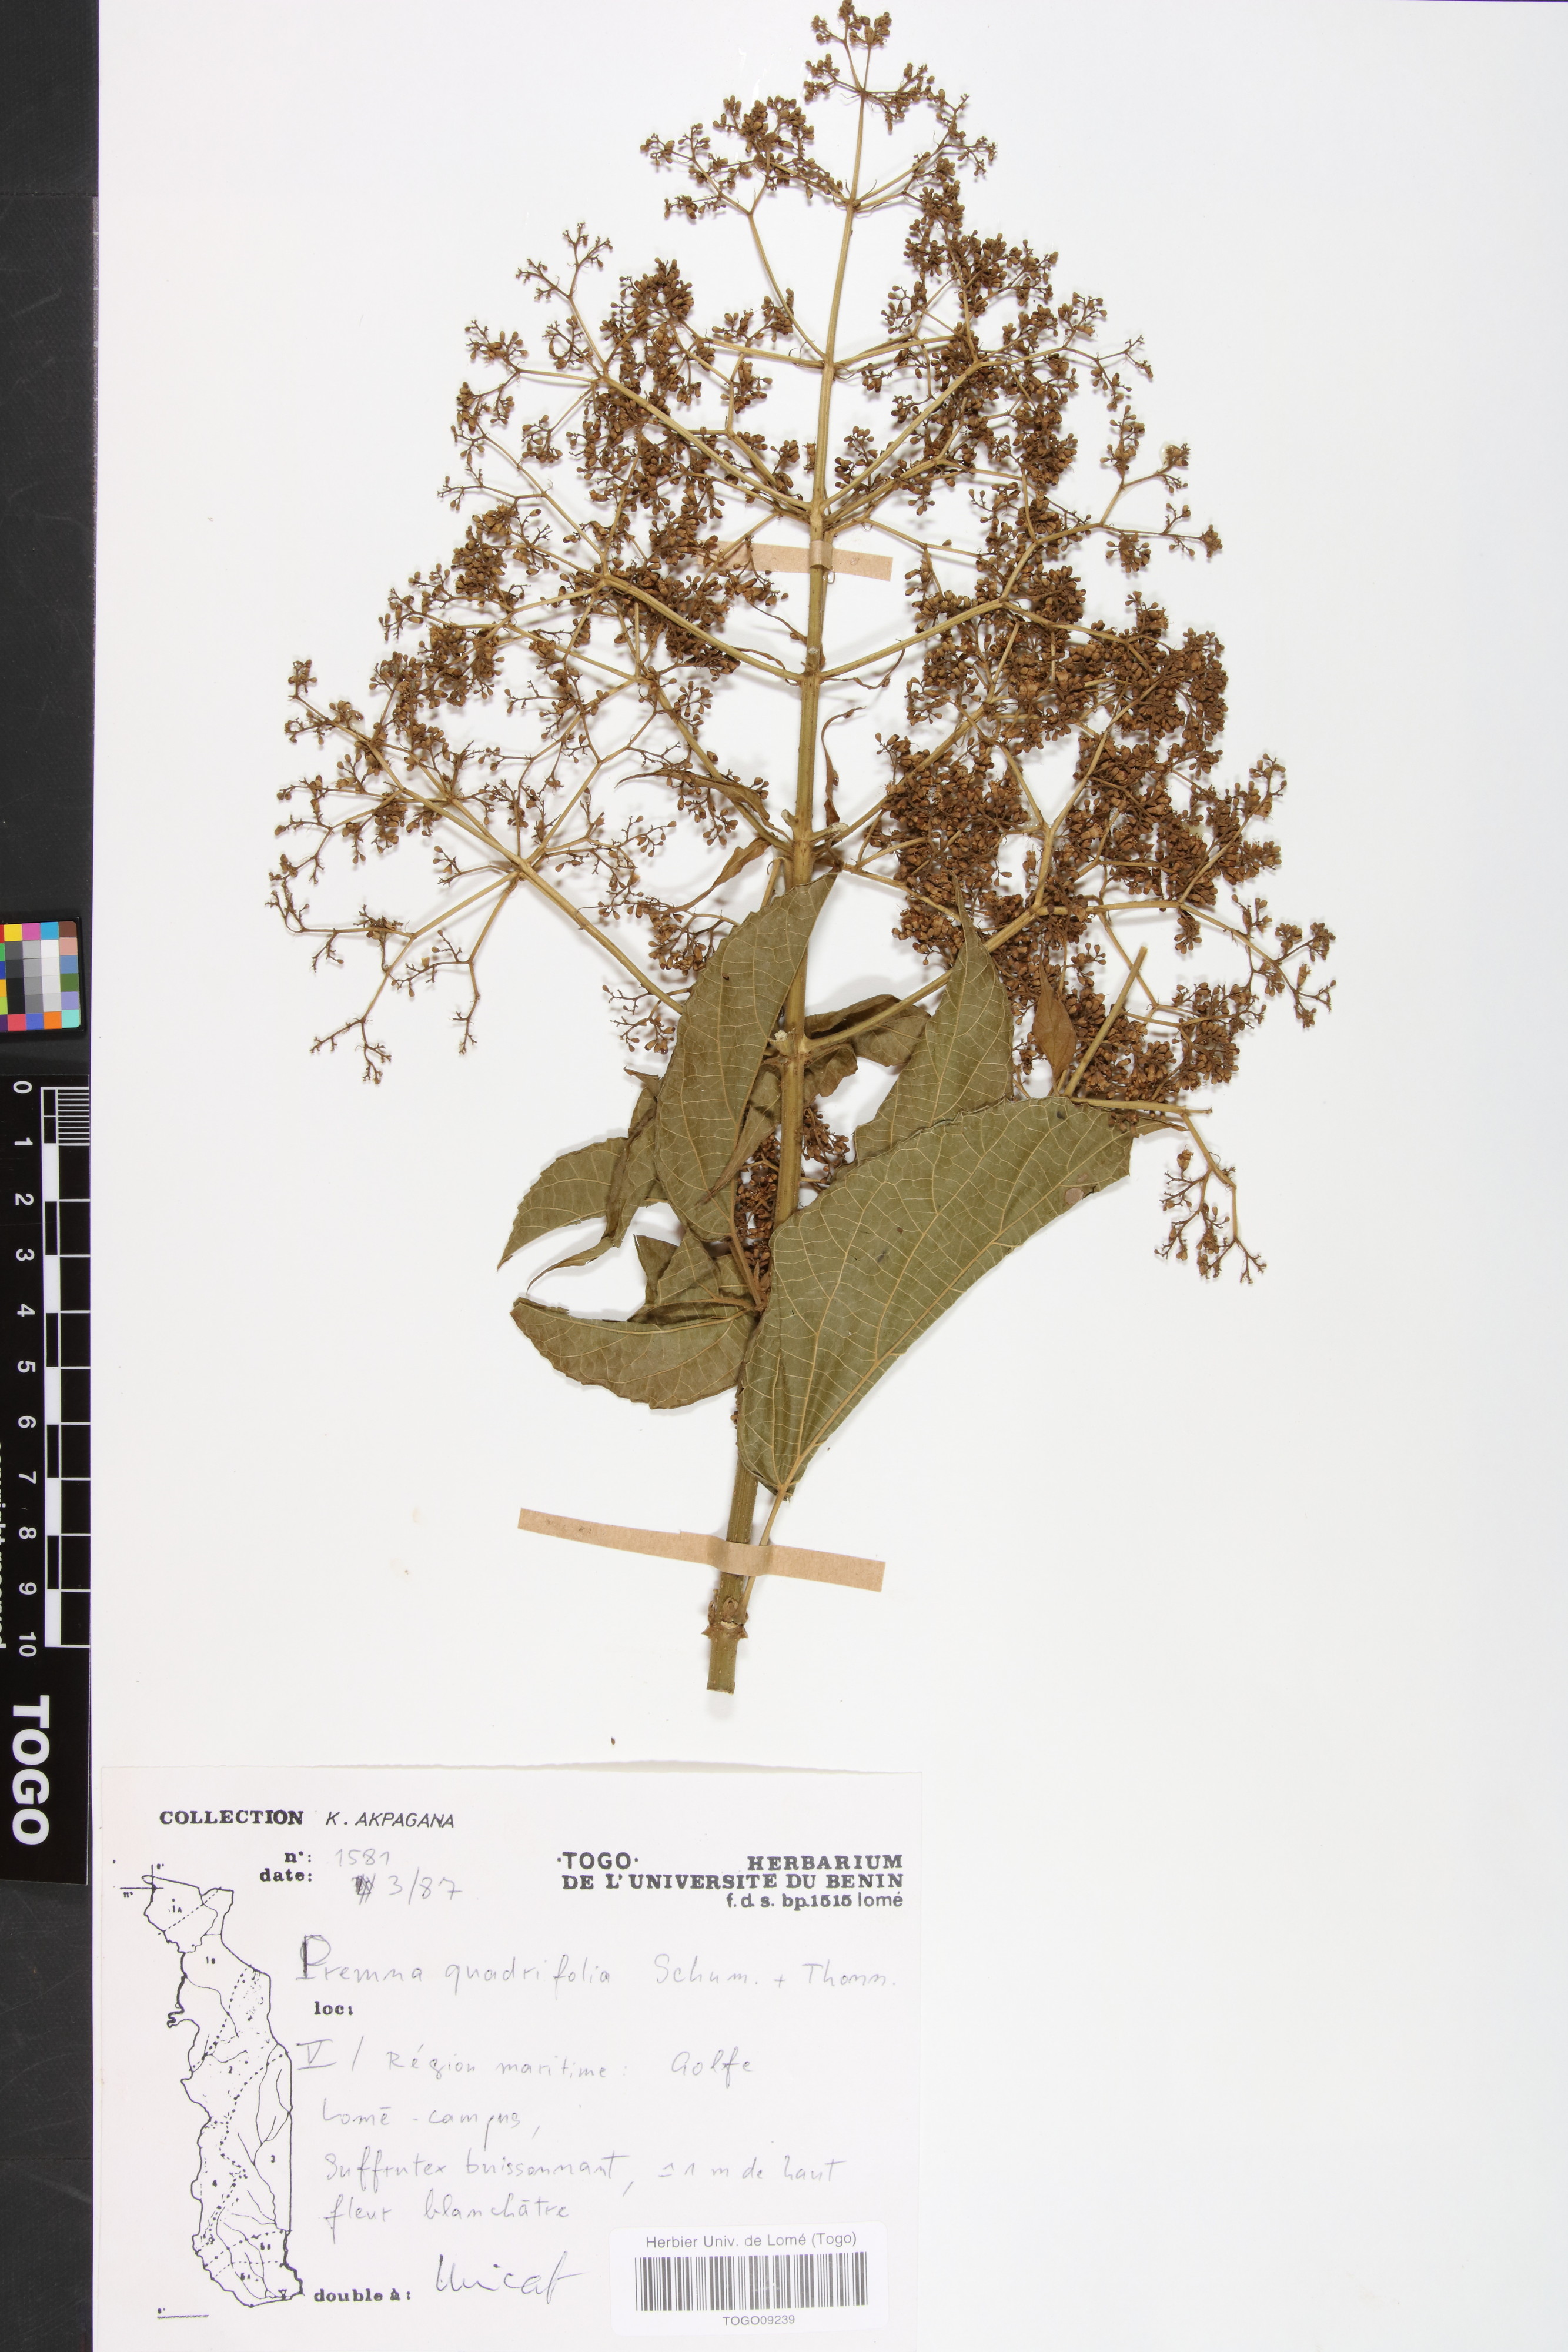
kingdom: Plantae
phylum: Tracheophyta
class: Magnoliopsida
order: Lamiales
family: Lamiaceae
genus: Premna
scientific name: Premna quadrifolia
